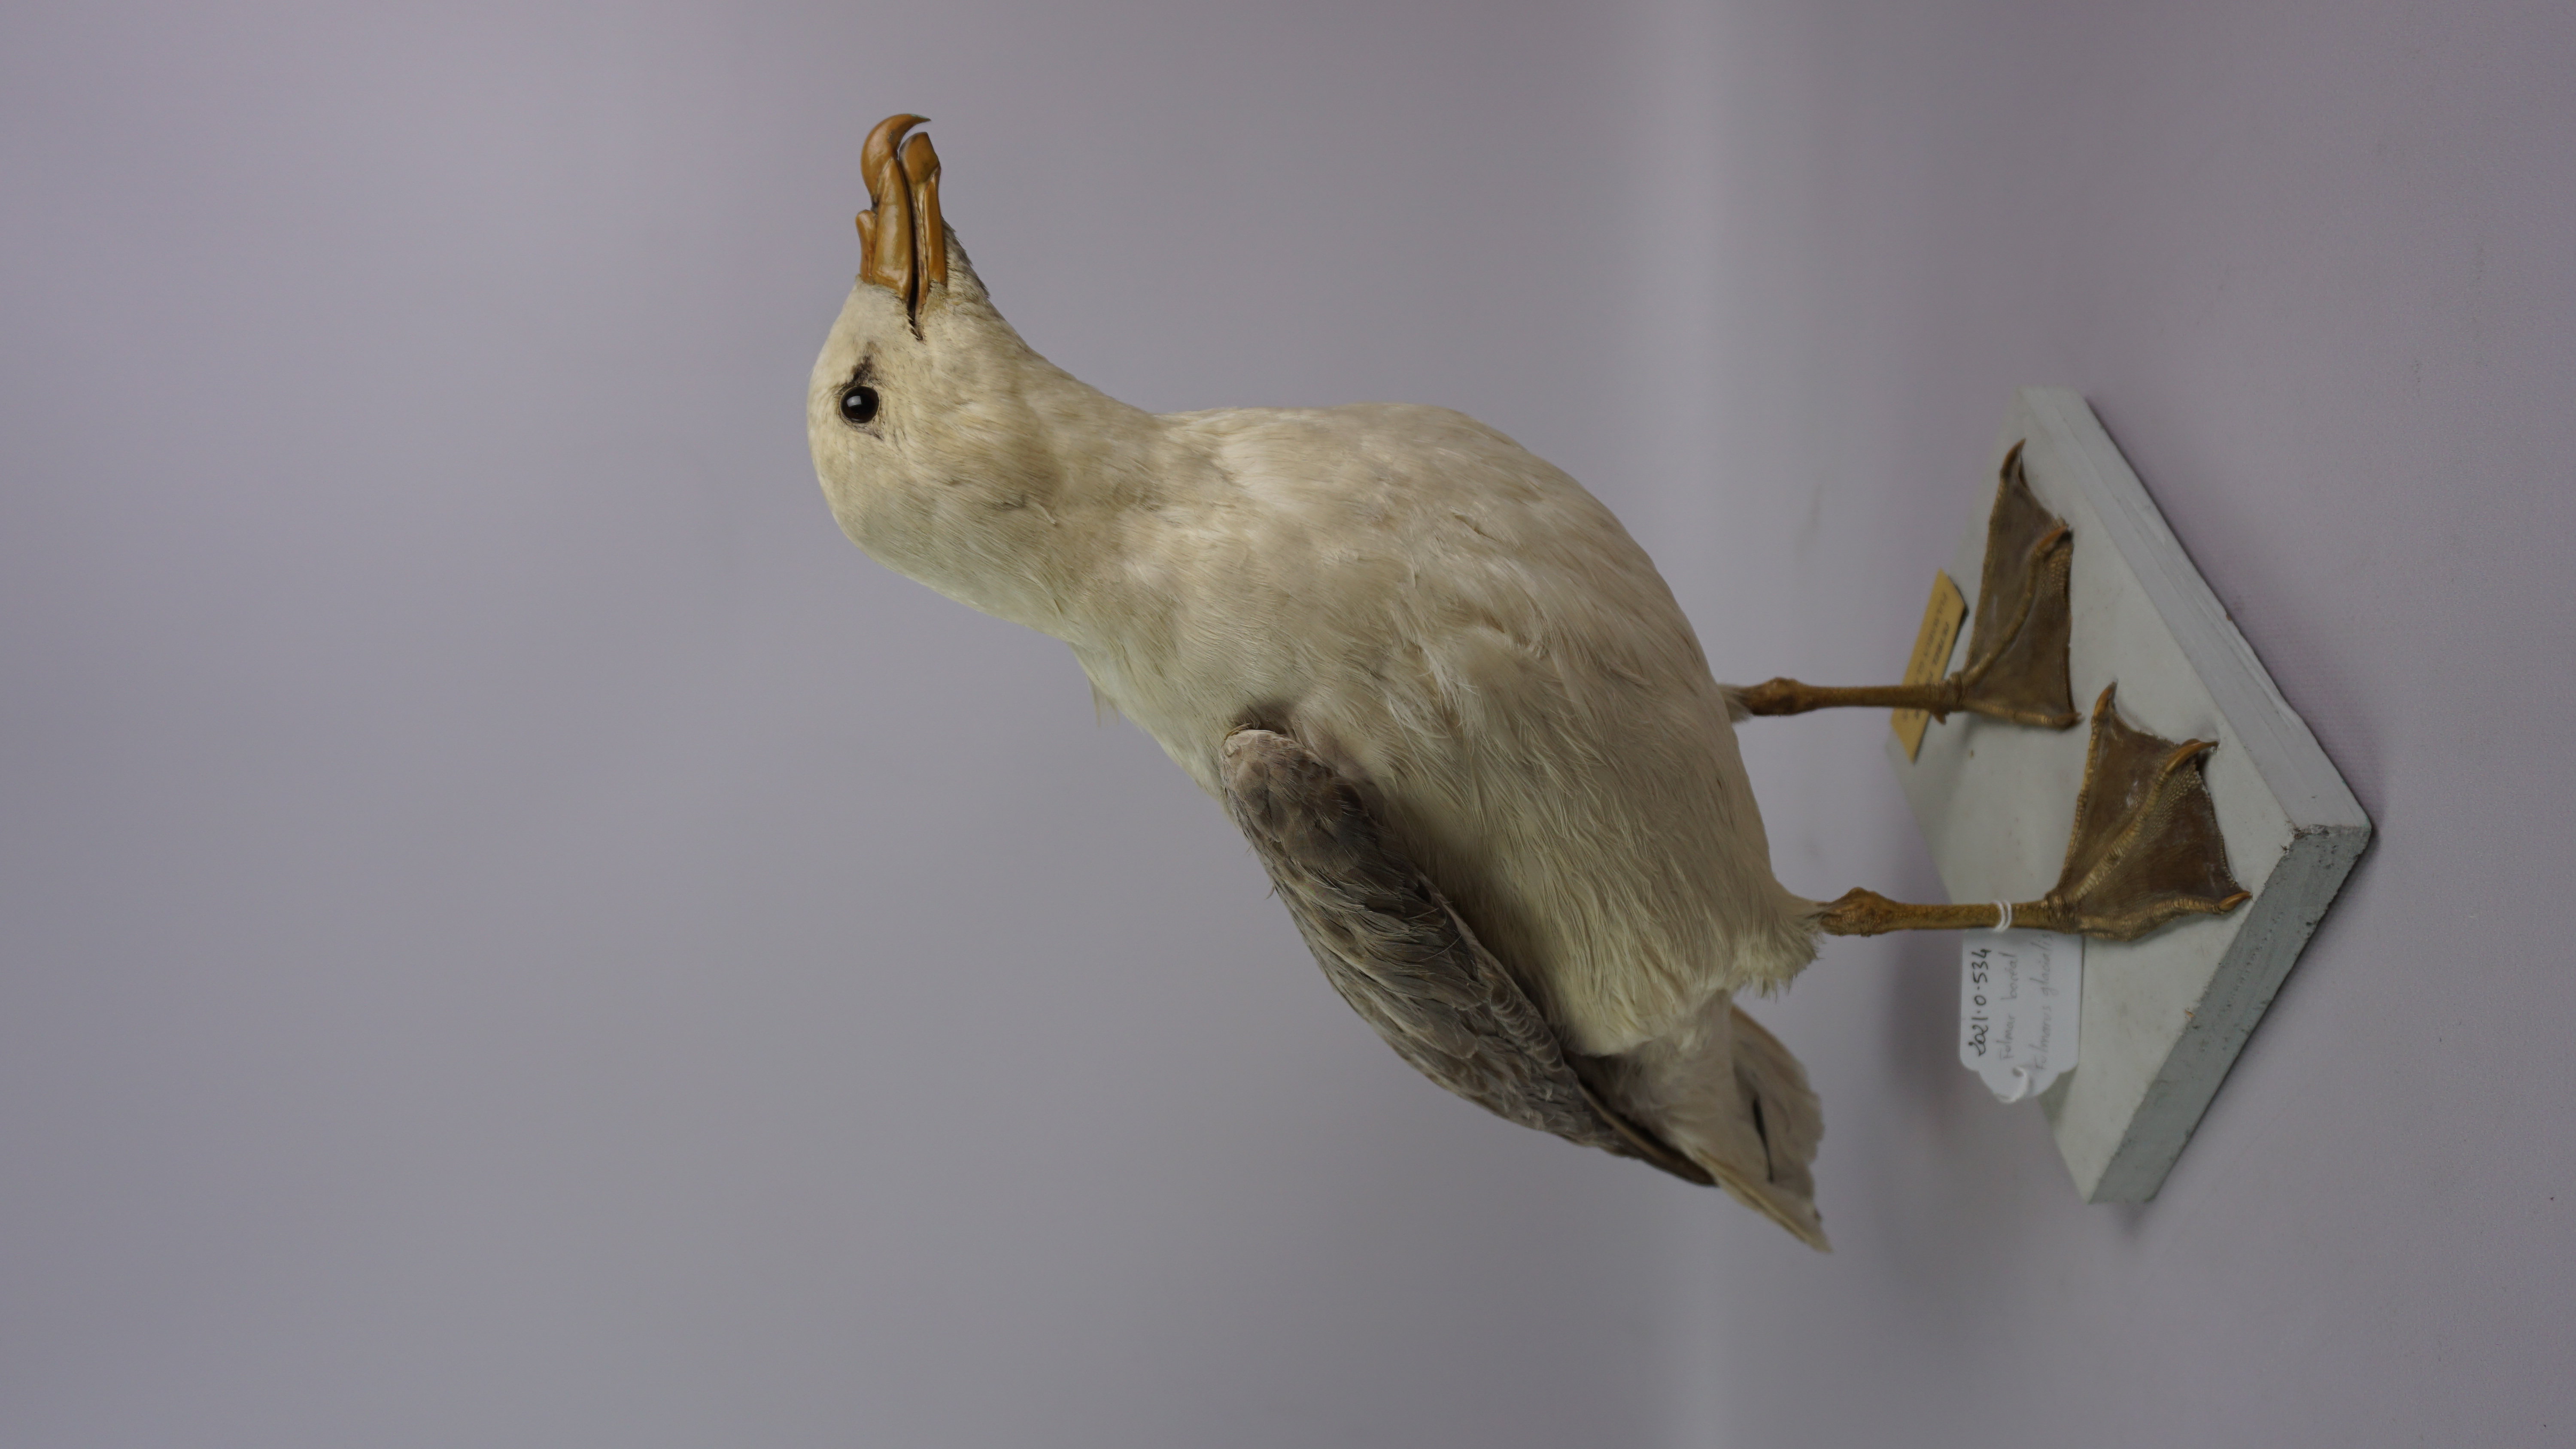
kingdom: Animalia
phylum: Chordata
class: Aves
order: Procellariiformes
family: Procellariidae
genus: Fulmarus
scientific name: Fulmarus glacialis
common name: Northern fulmar
